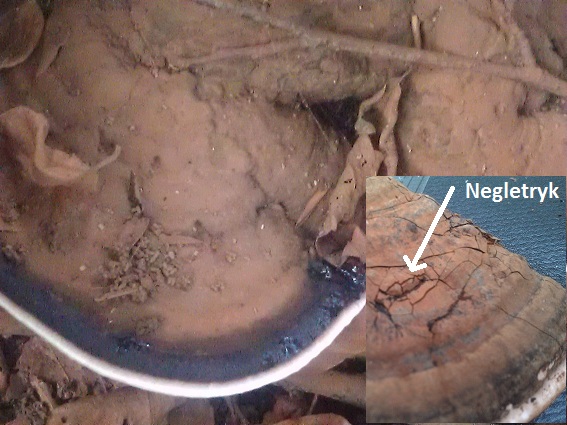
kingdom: Fungi
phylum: Basidiomycota
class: Agaricomycetes
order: Polyporales
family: Polyporaceae
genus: Ganoderma
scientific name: Ganoderma applanatum
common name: flad lakporesvamp
